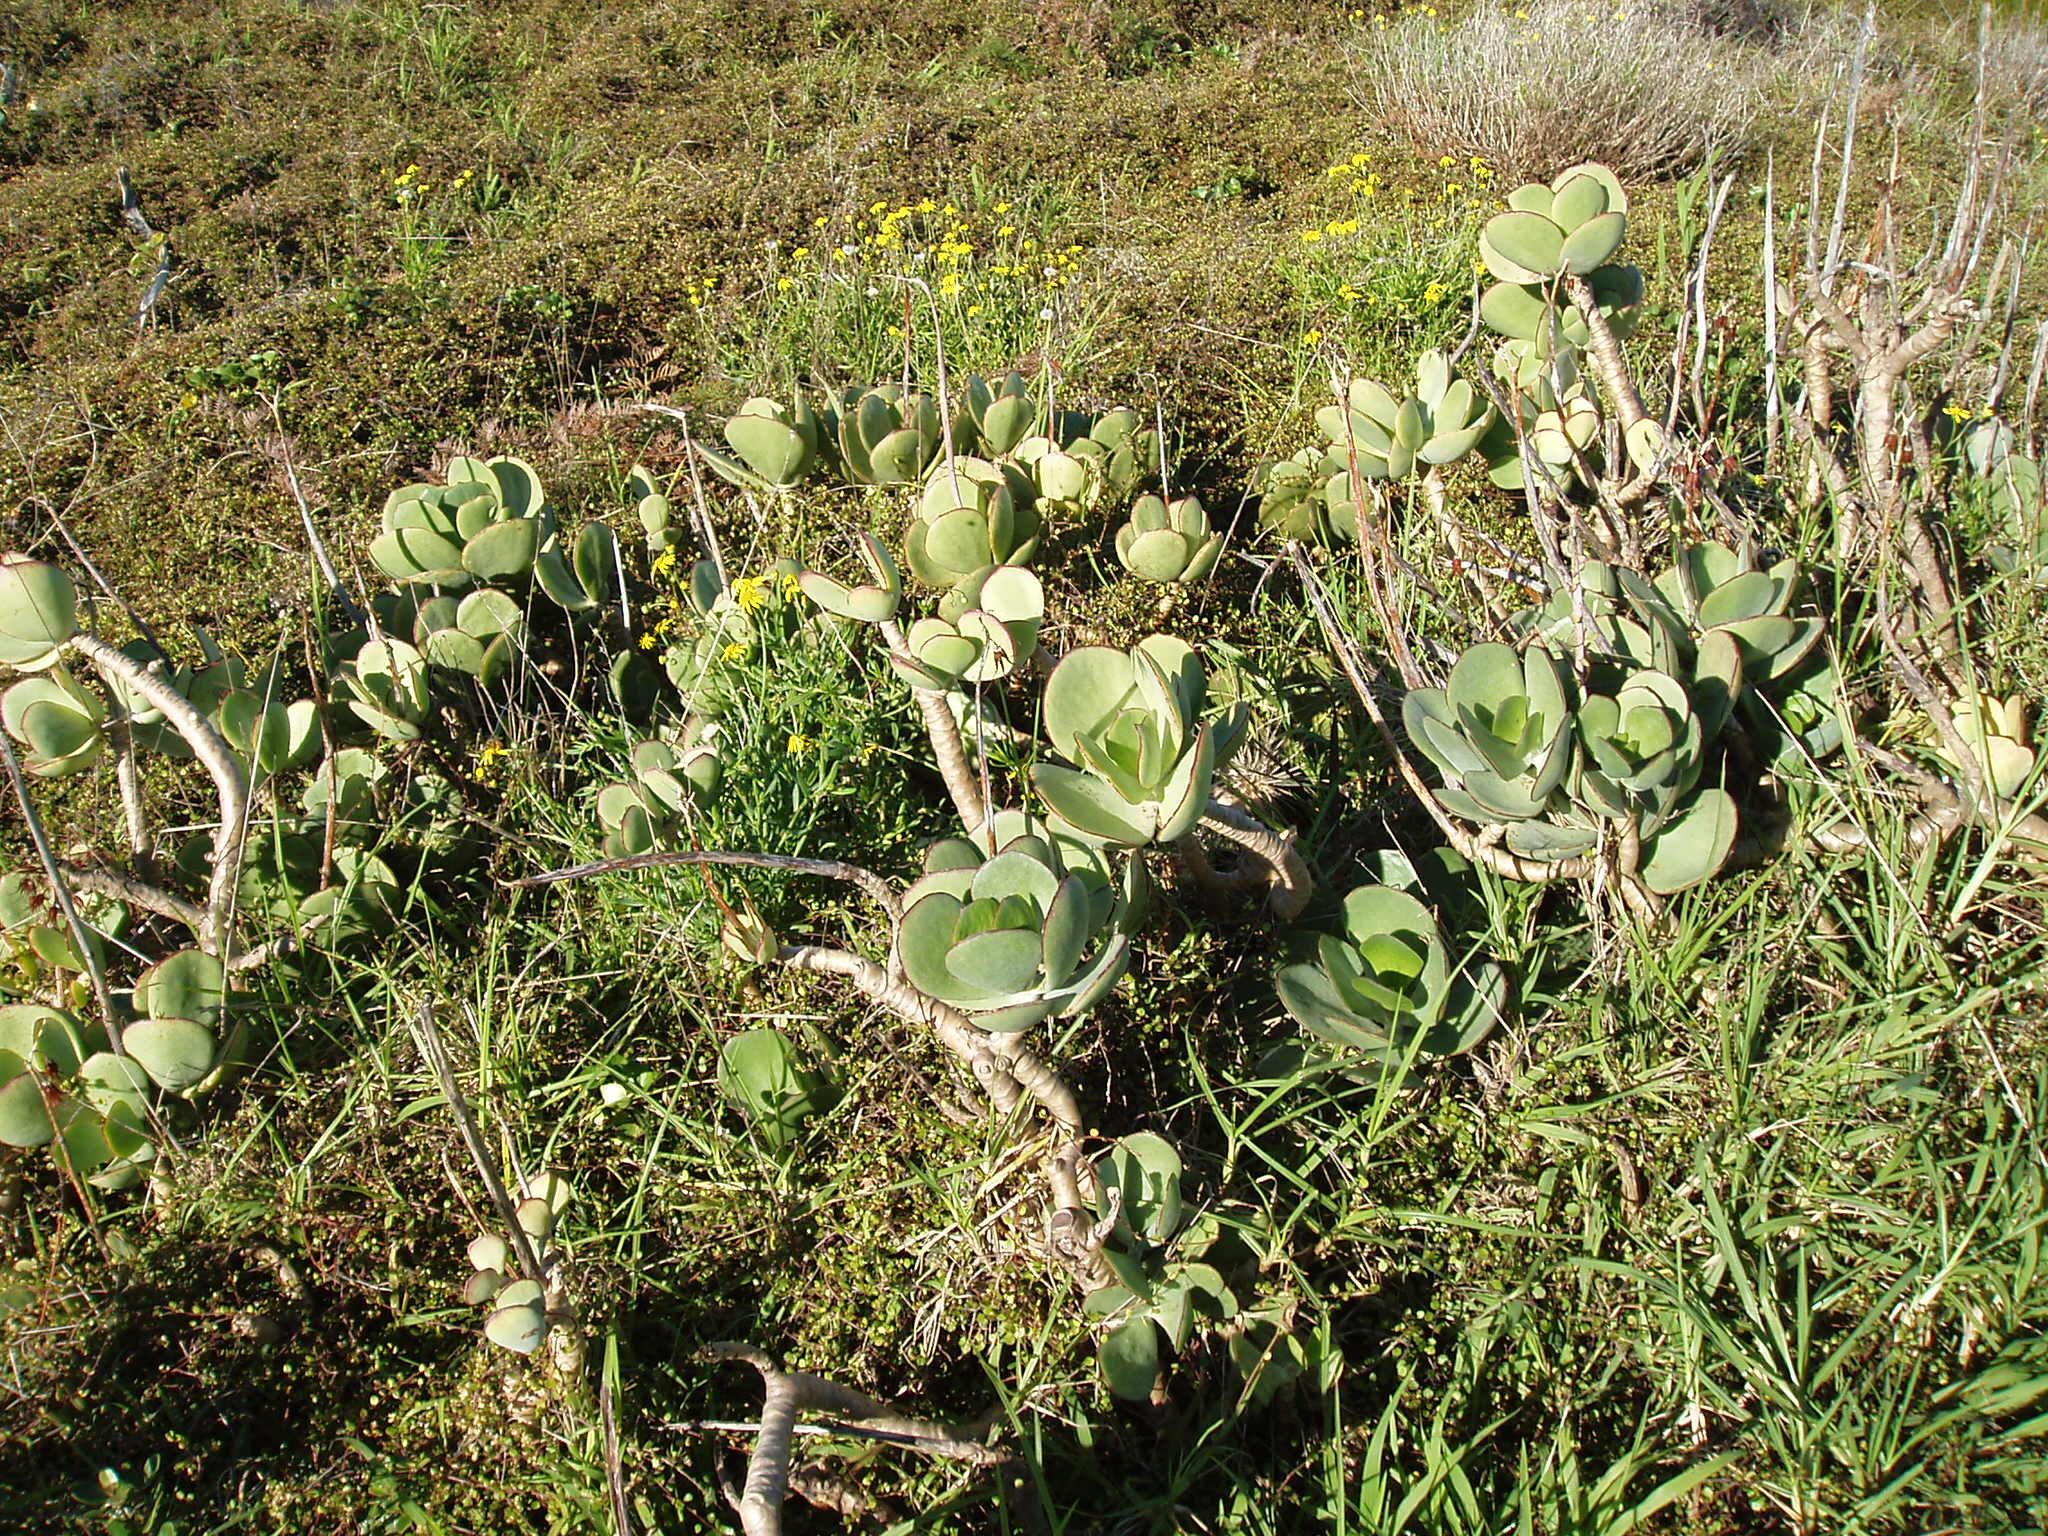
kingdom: Plantae
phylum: Tracheophyta
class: Magnoliopsida
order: Saxifragales
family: Crassulaceae
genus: Cotyledon
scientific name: Cotyledon orbiculata
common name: Pig's ear
